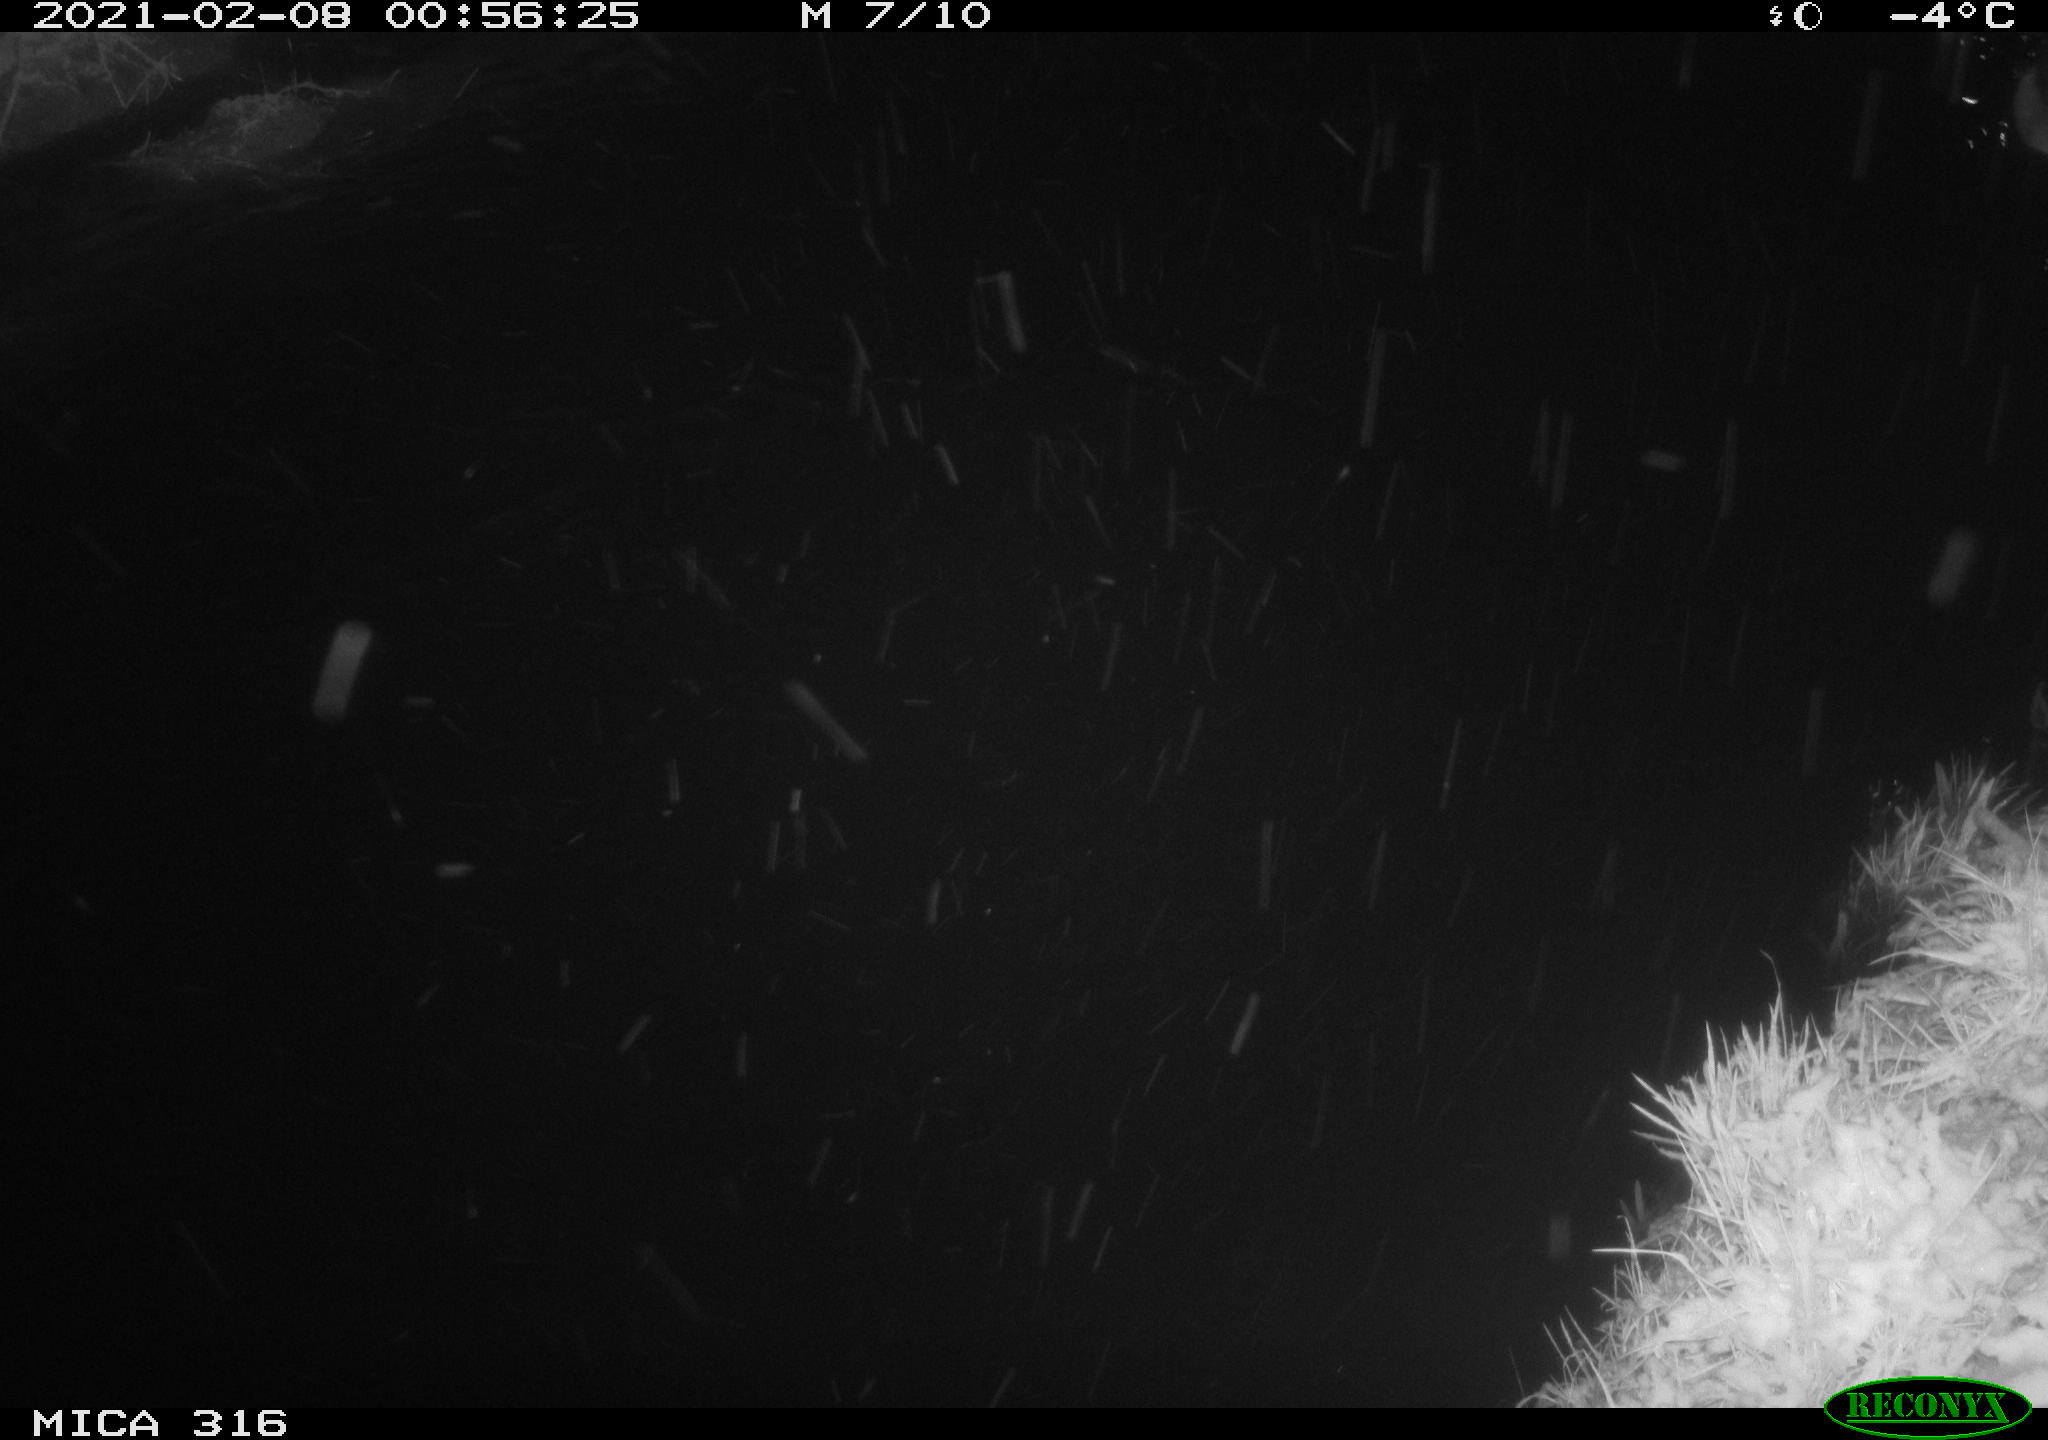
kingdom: Animalia
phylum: Chordata
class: Aves
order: Anseriformes
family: Anatidae
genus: Anas
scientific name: Anas platyrhynchos
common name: Mallard
